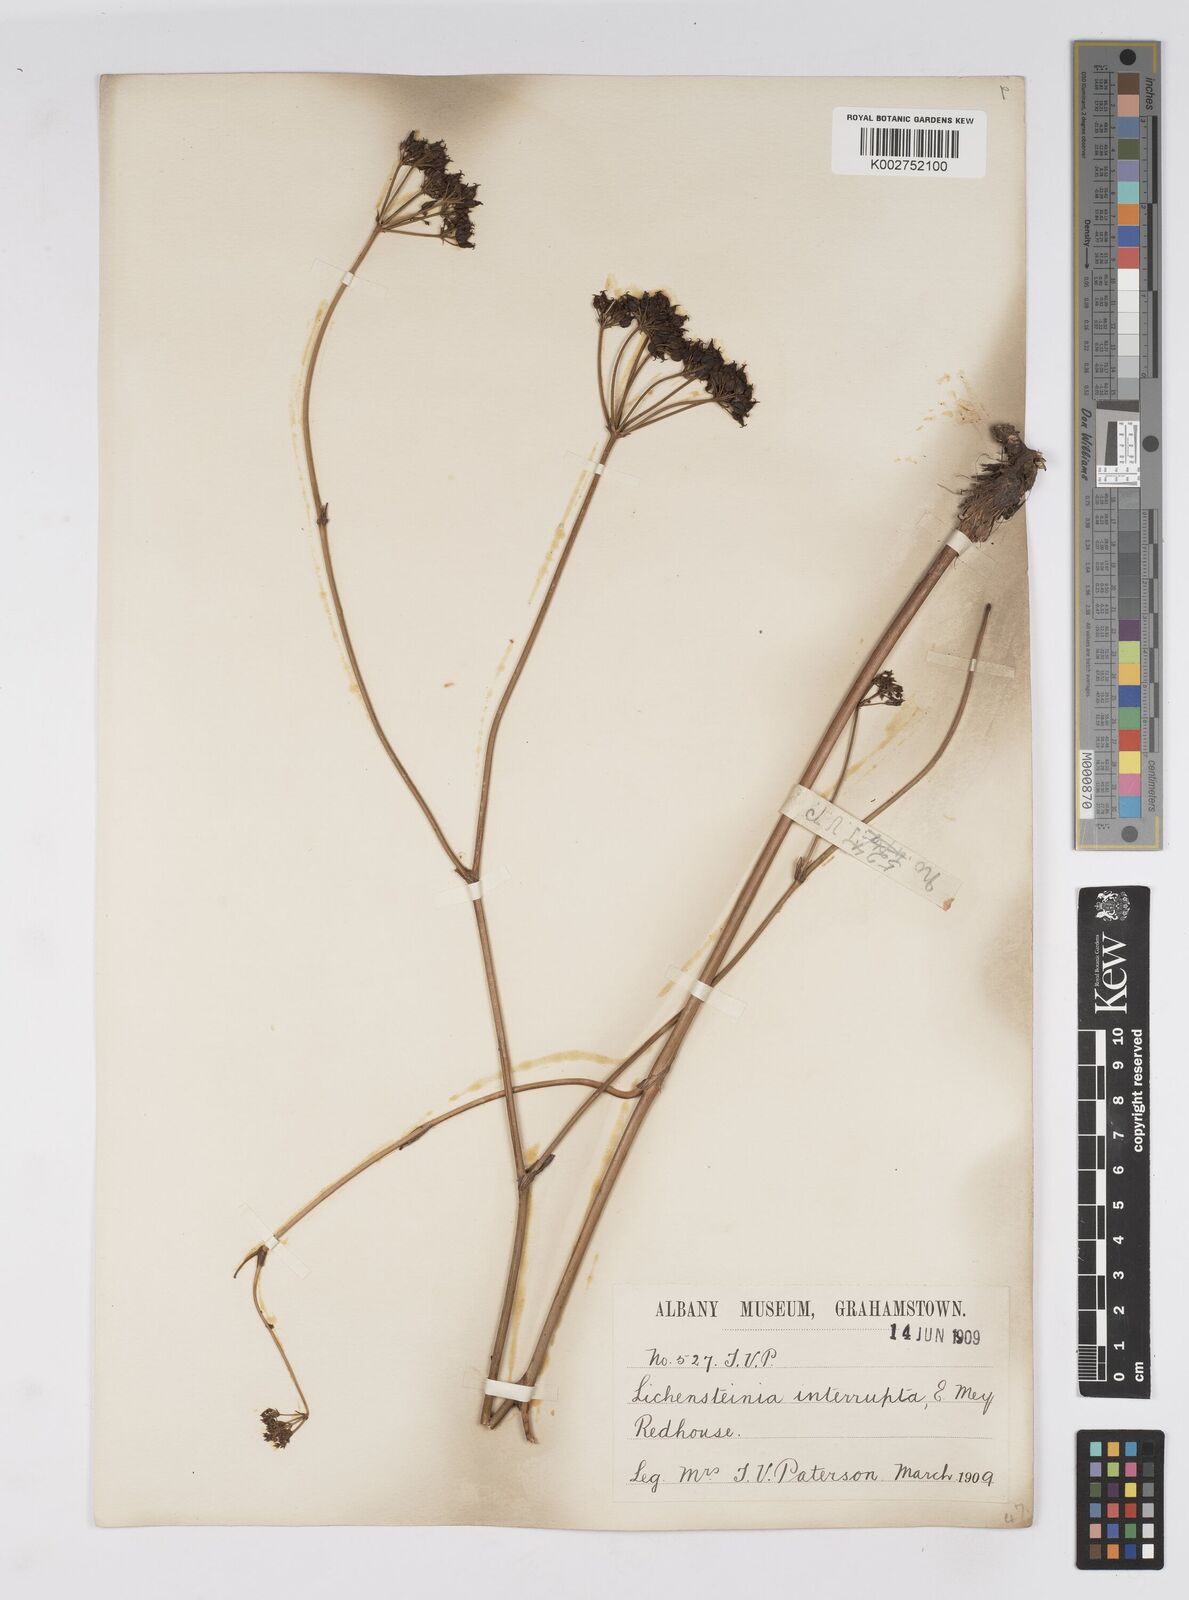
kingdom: Plantae
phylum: Tracheophyta
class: Magnoliopsida
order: Apiales
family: Apiaceae
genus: Lichtensteinia
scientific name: Lichtensteinia interrupta
